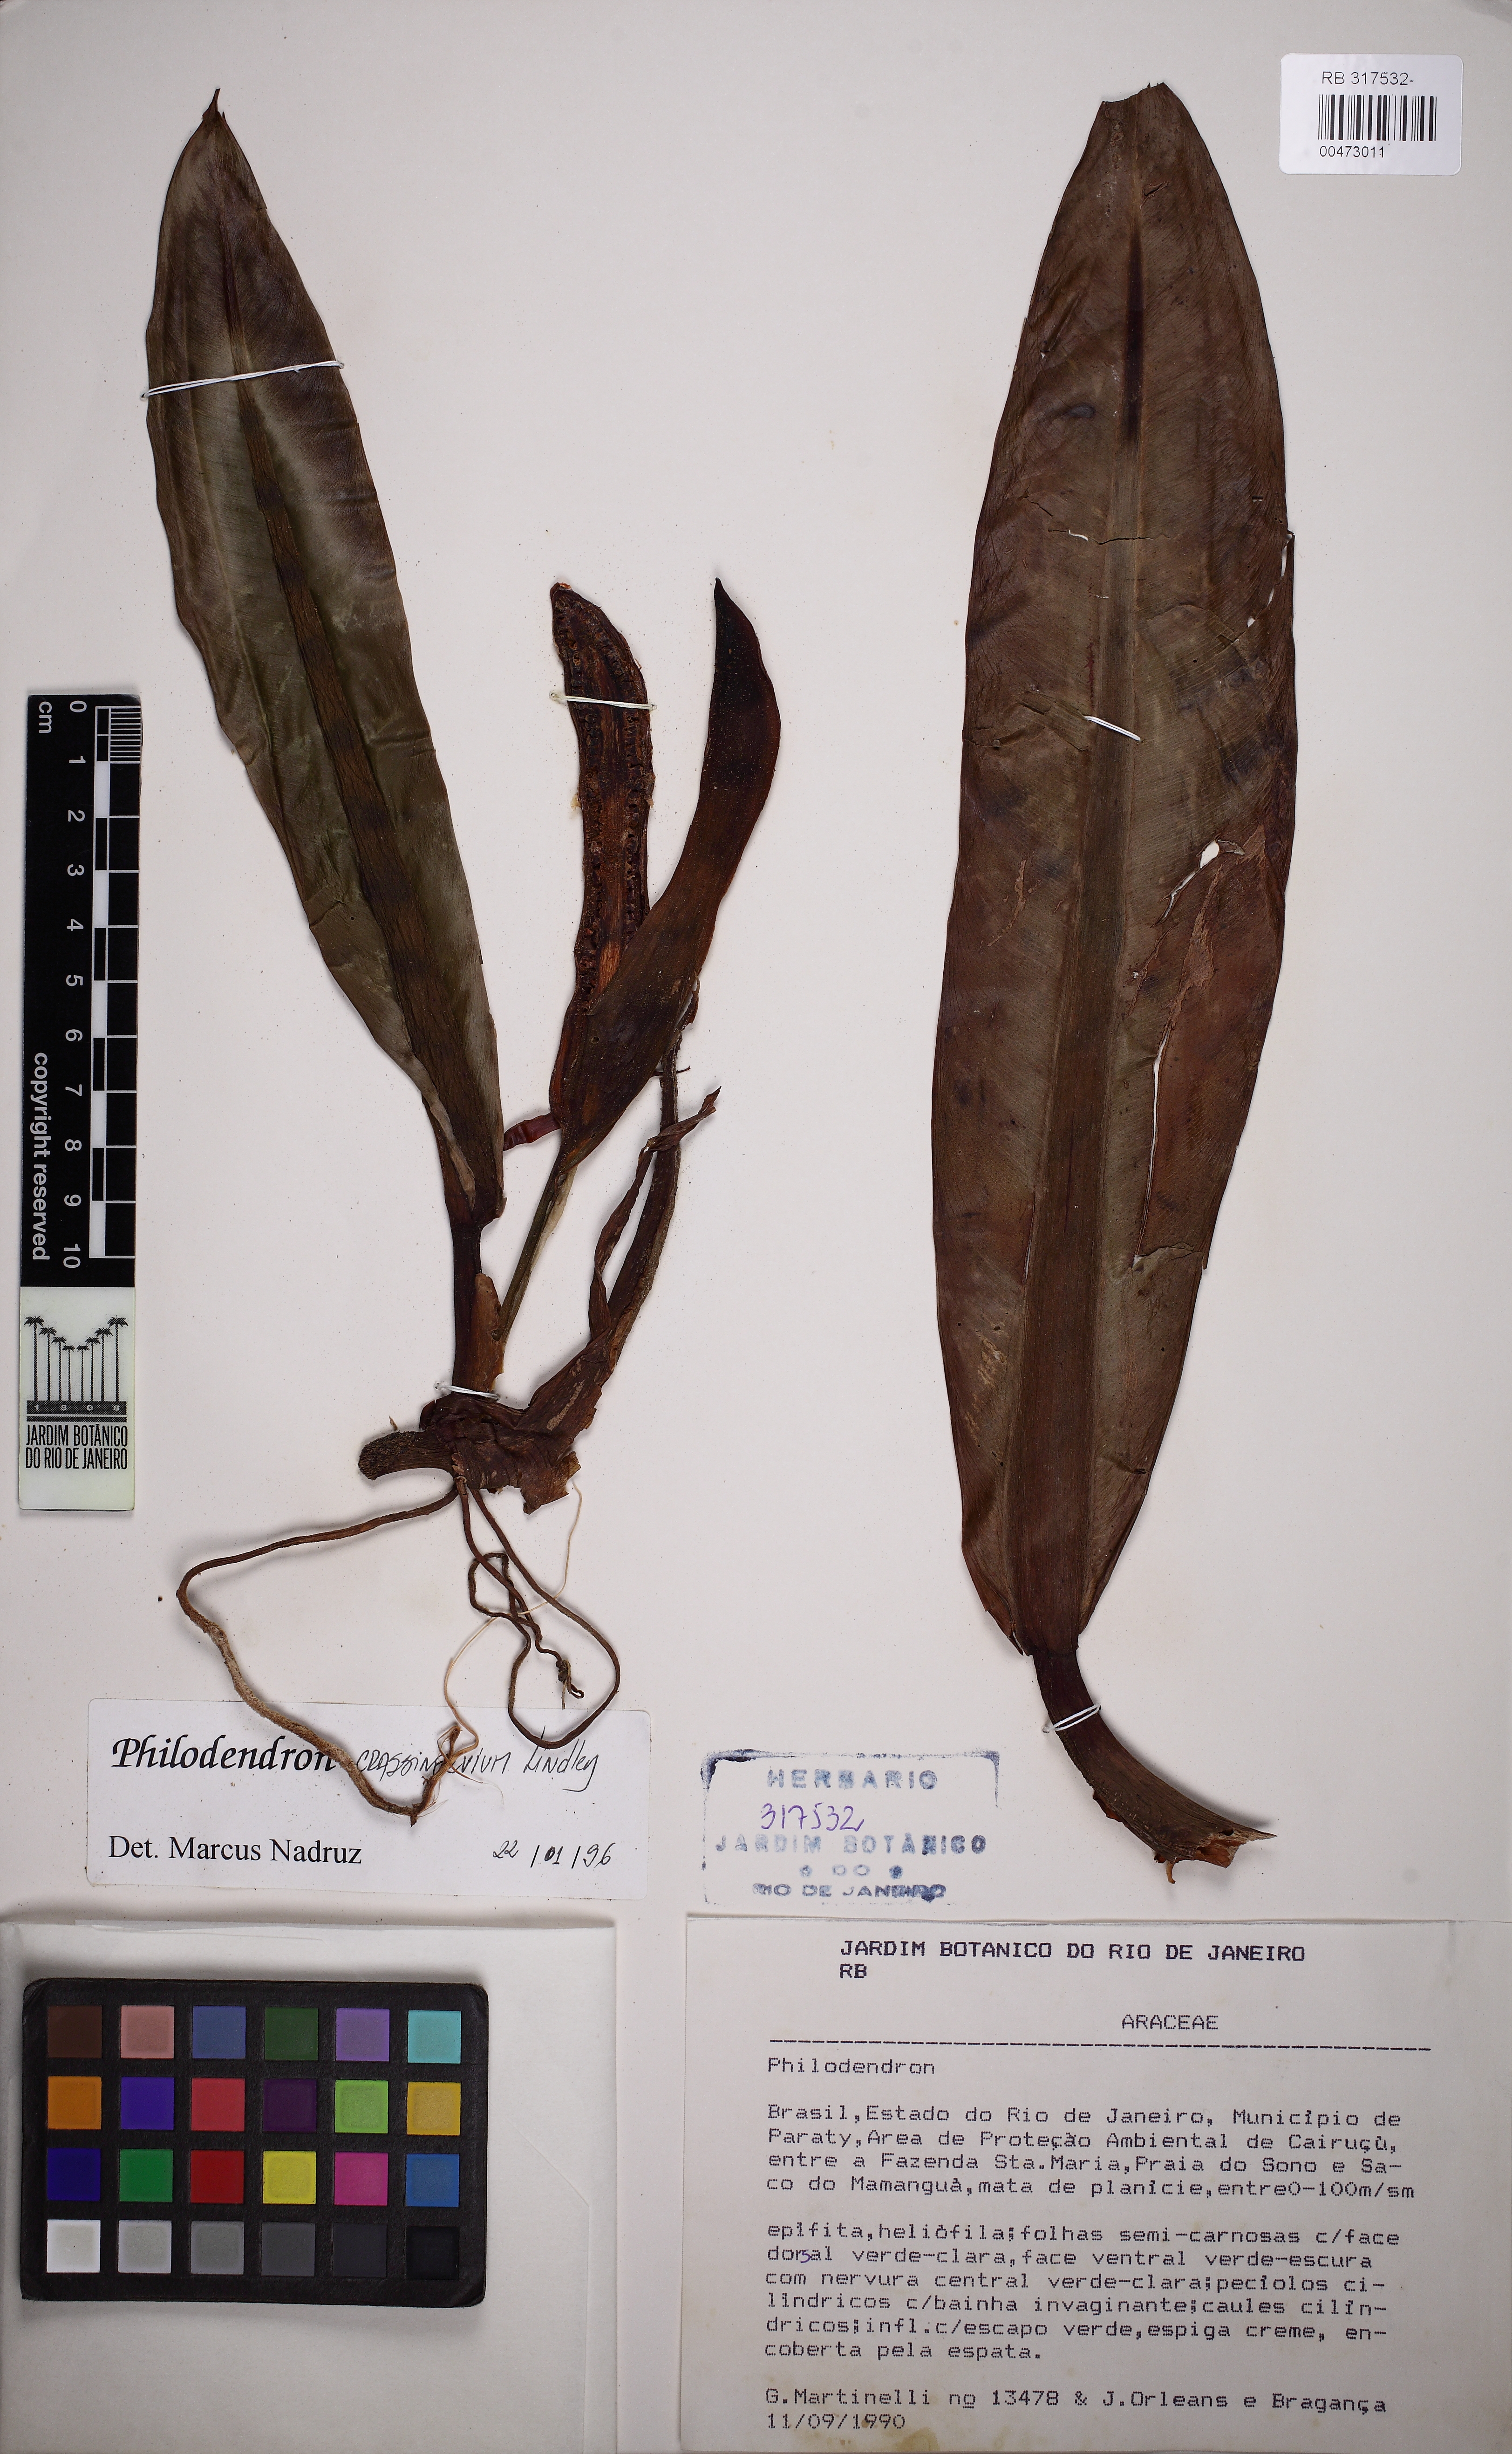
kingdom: Plantae
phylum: Tracheophyta
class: Liliopsida
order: Alismatales
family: Araceae
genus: Philodendron
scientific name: Philodendron crassinervium
